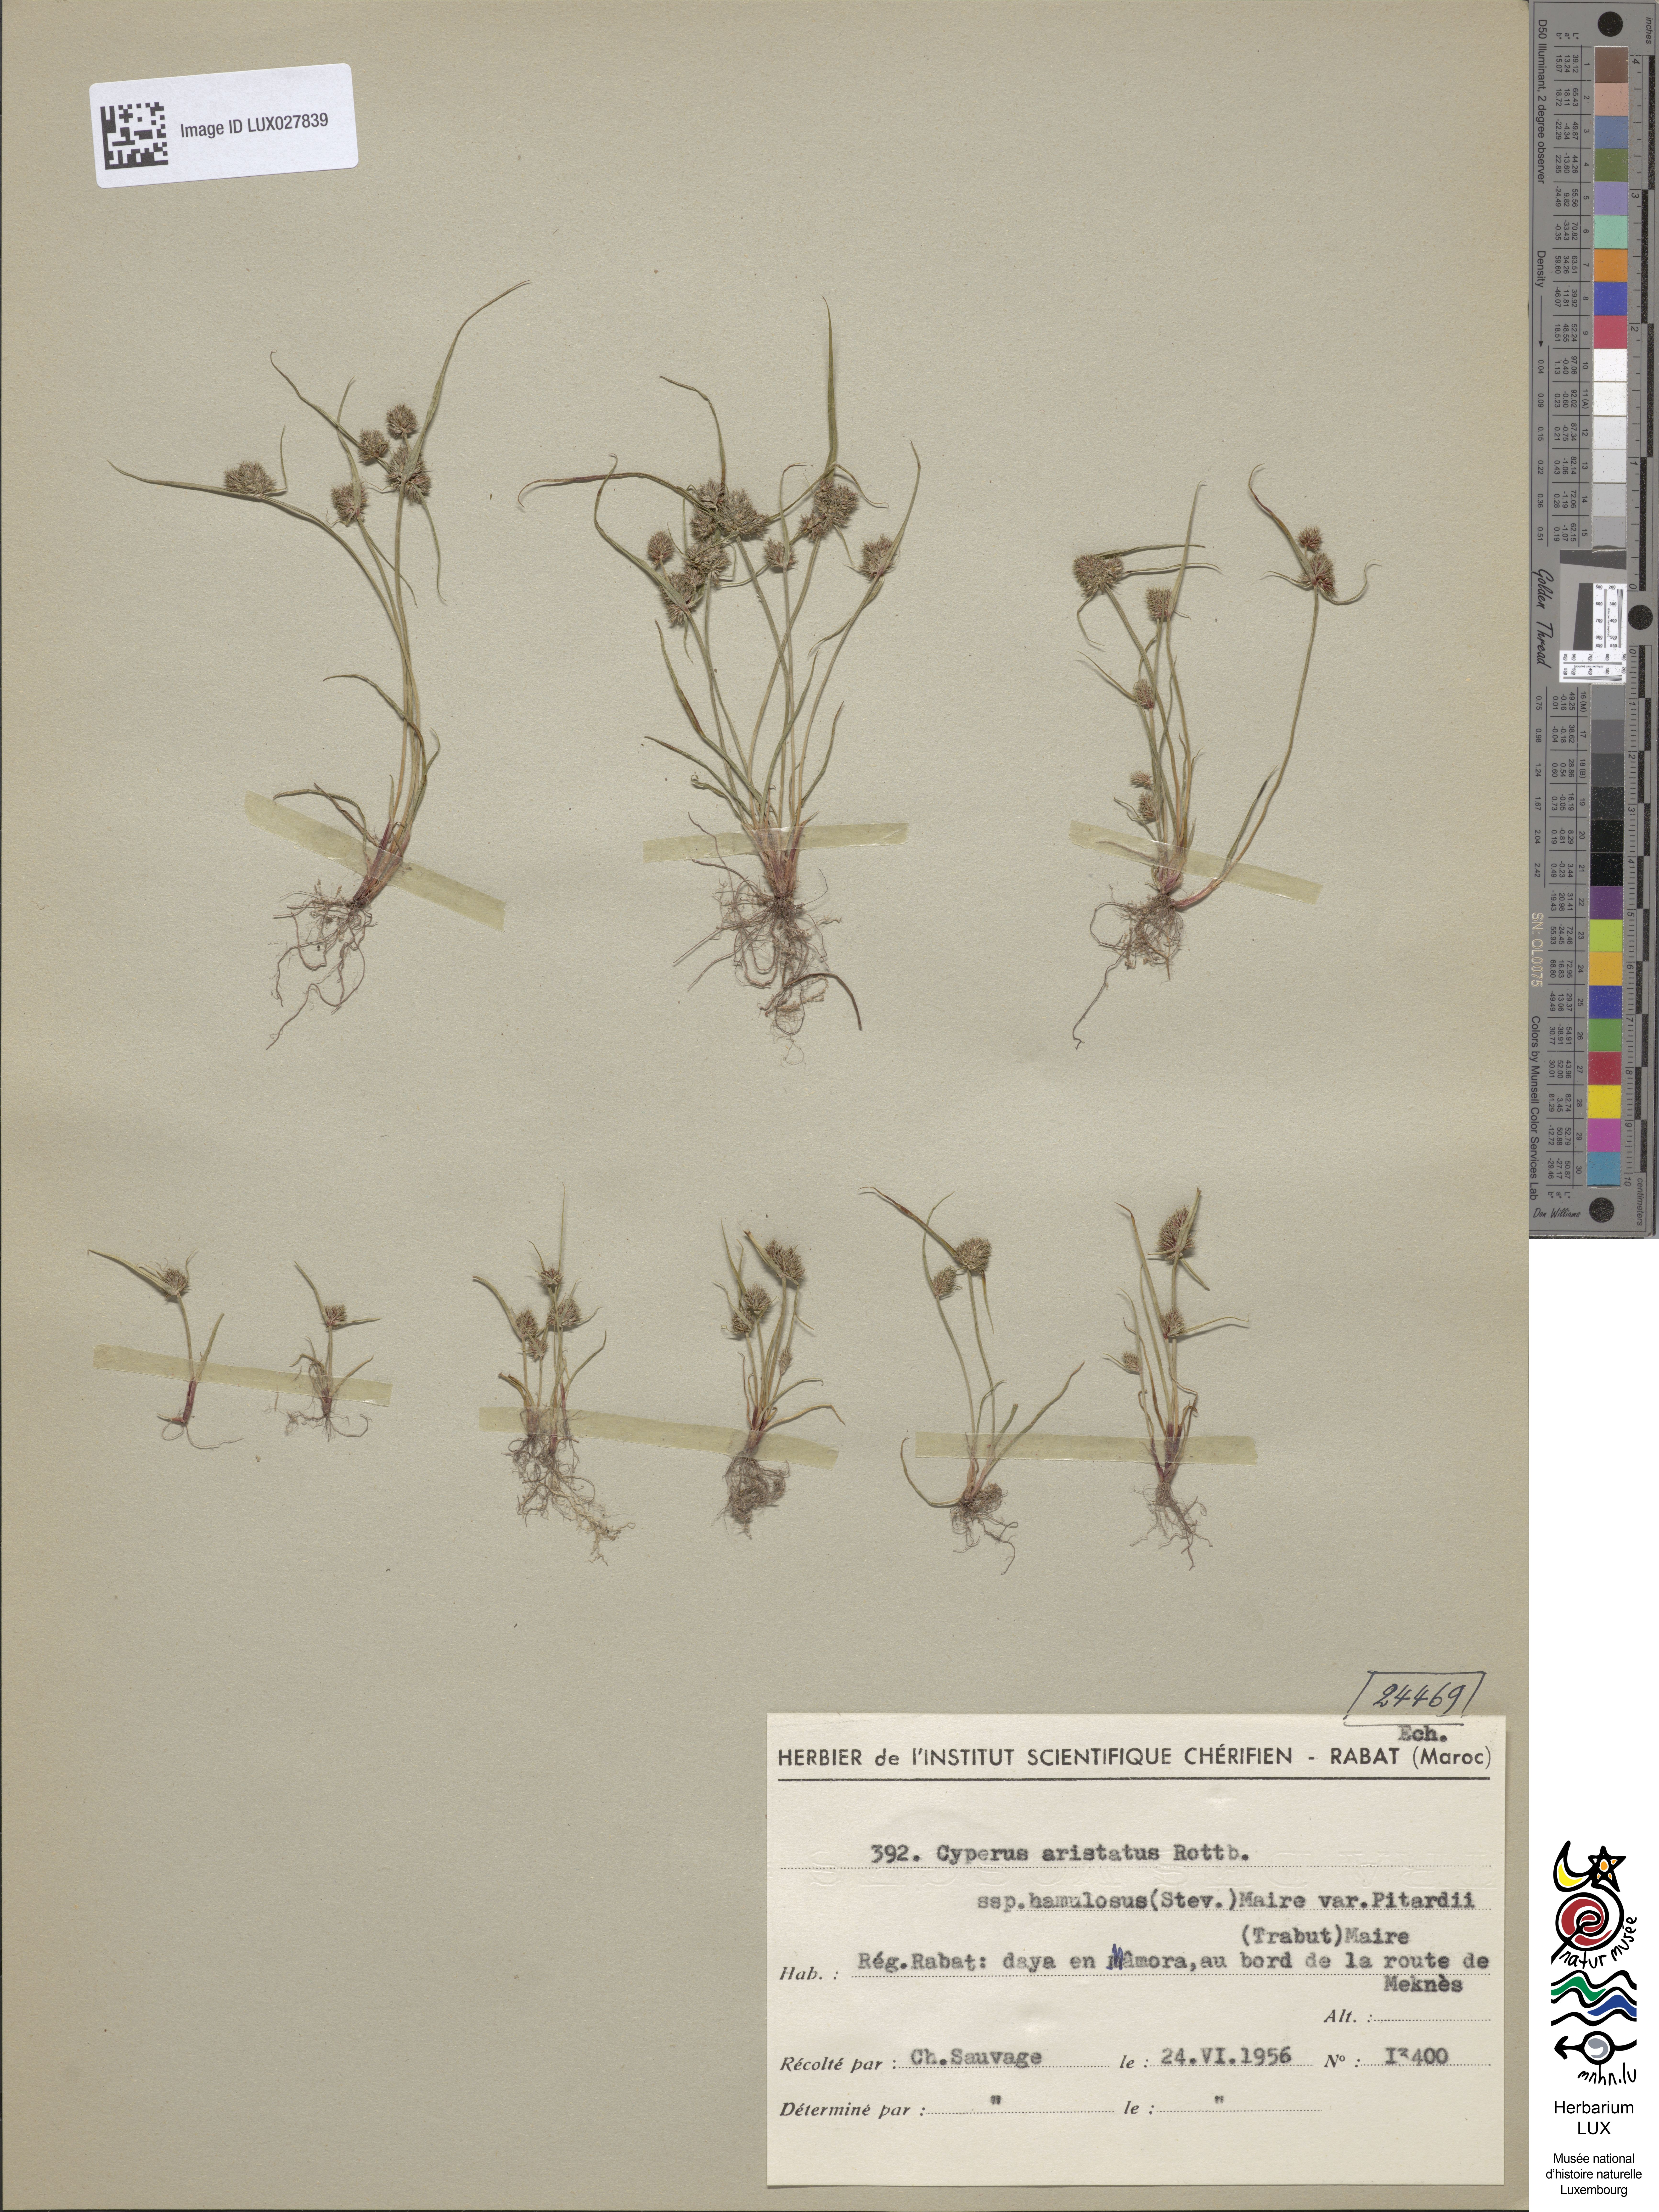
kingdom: Plantae
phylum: Tracheophyta
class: Liliopsida
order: Poales
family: Cyperaceae
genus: Cyperus
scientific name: Cyperus
